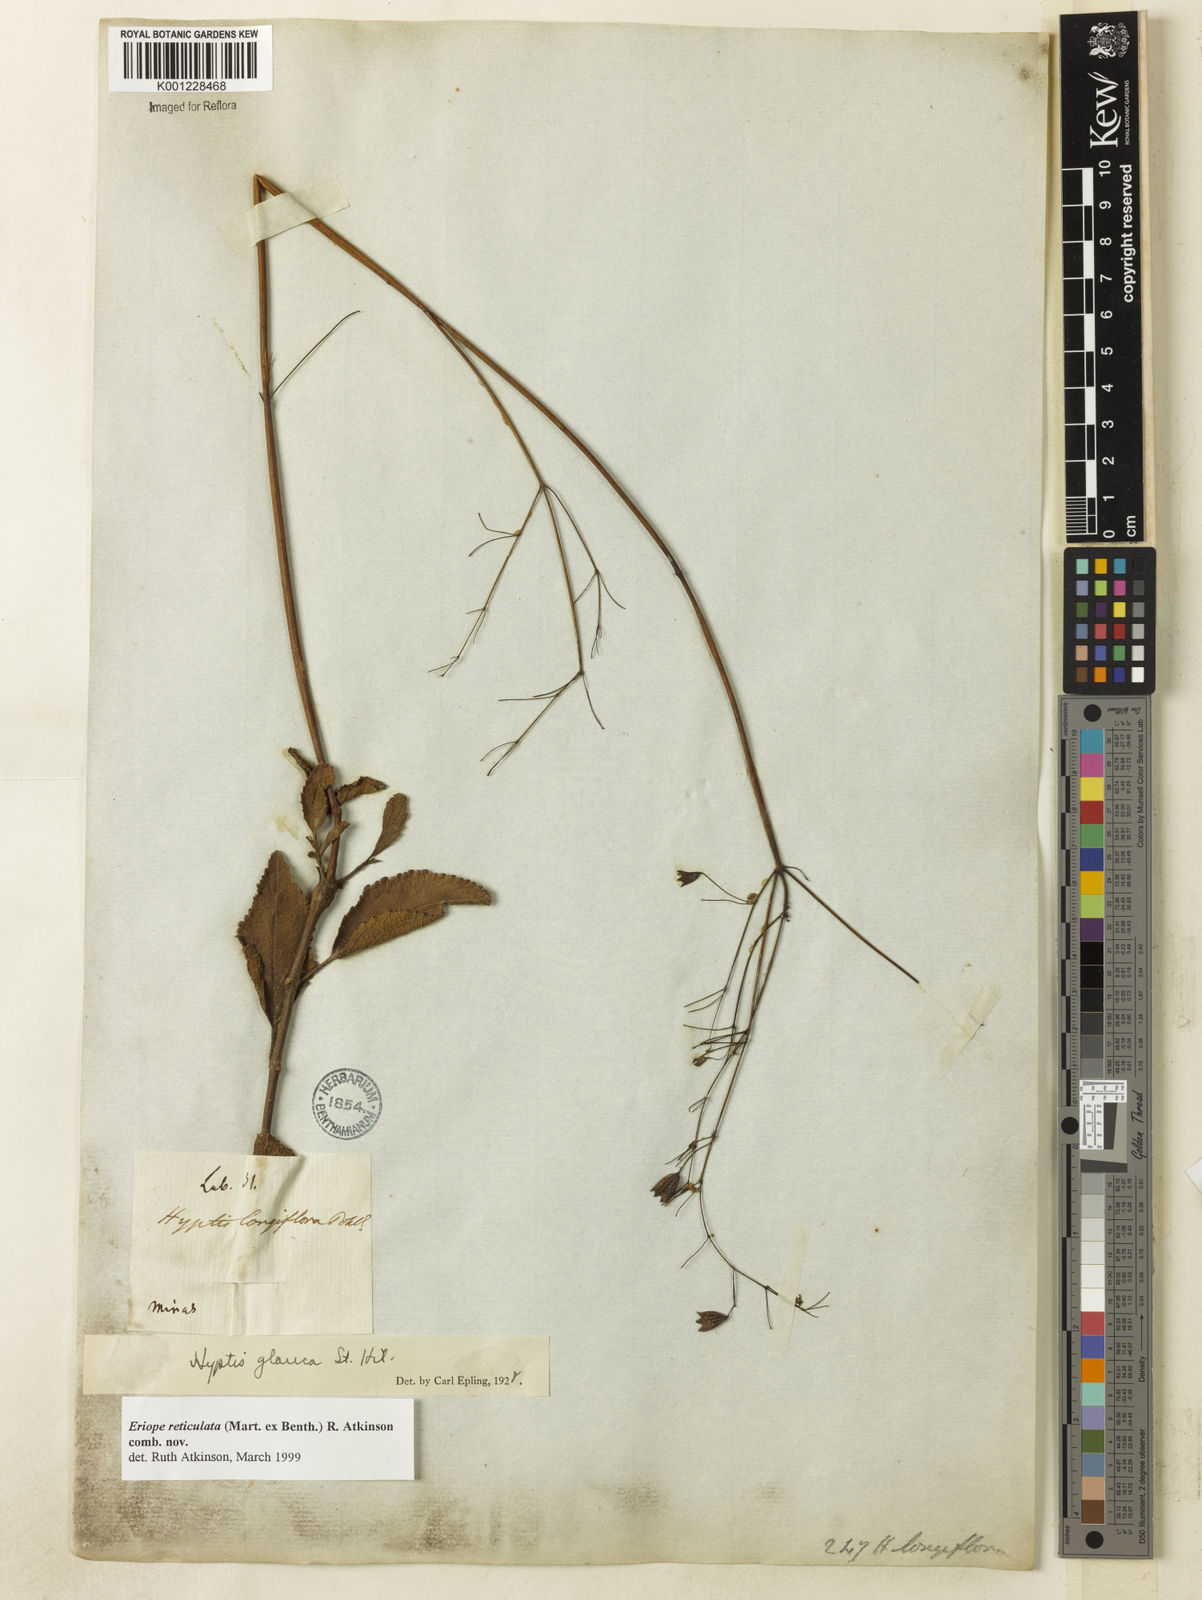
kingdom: Plantae
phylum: Tracheophyta
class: Magnoliopsida
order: Lamiales
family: Lamiaceae
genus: Hypenia
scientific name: Hypenia reticulata
